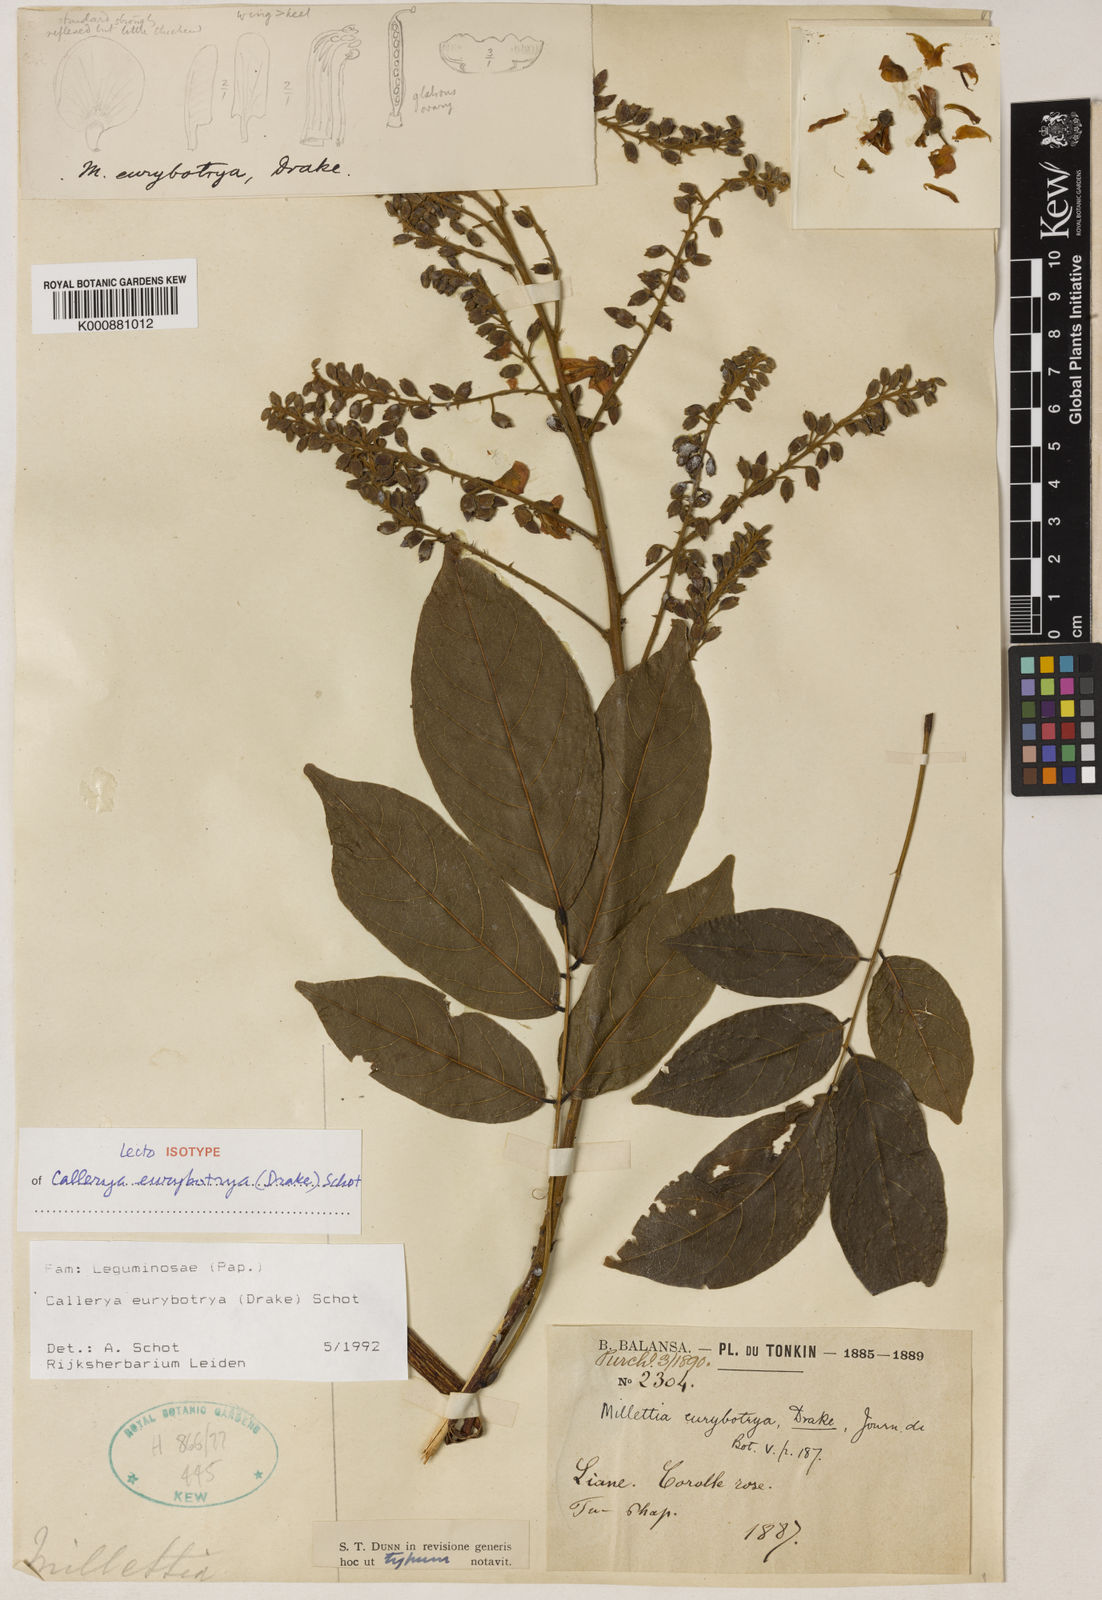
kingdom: Plantae
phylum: Tracheophyta
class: Magnoliopsida
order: Fabales
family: Fabaceae
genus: Wisteriopsis
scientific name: Wisteriopsis eurybotrya
